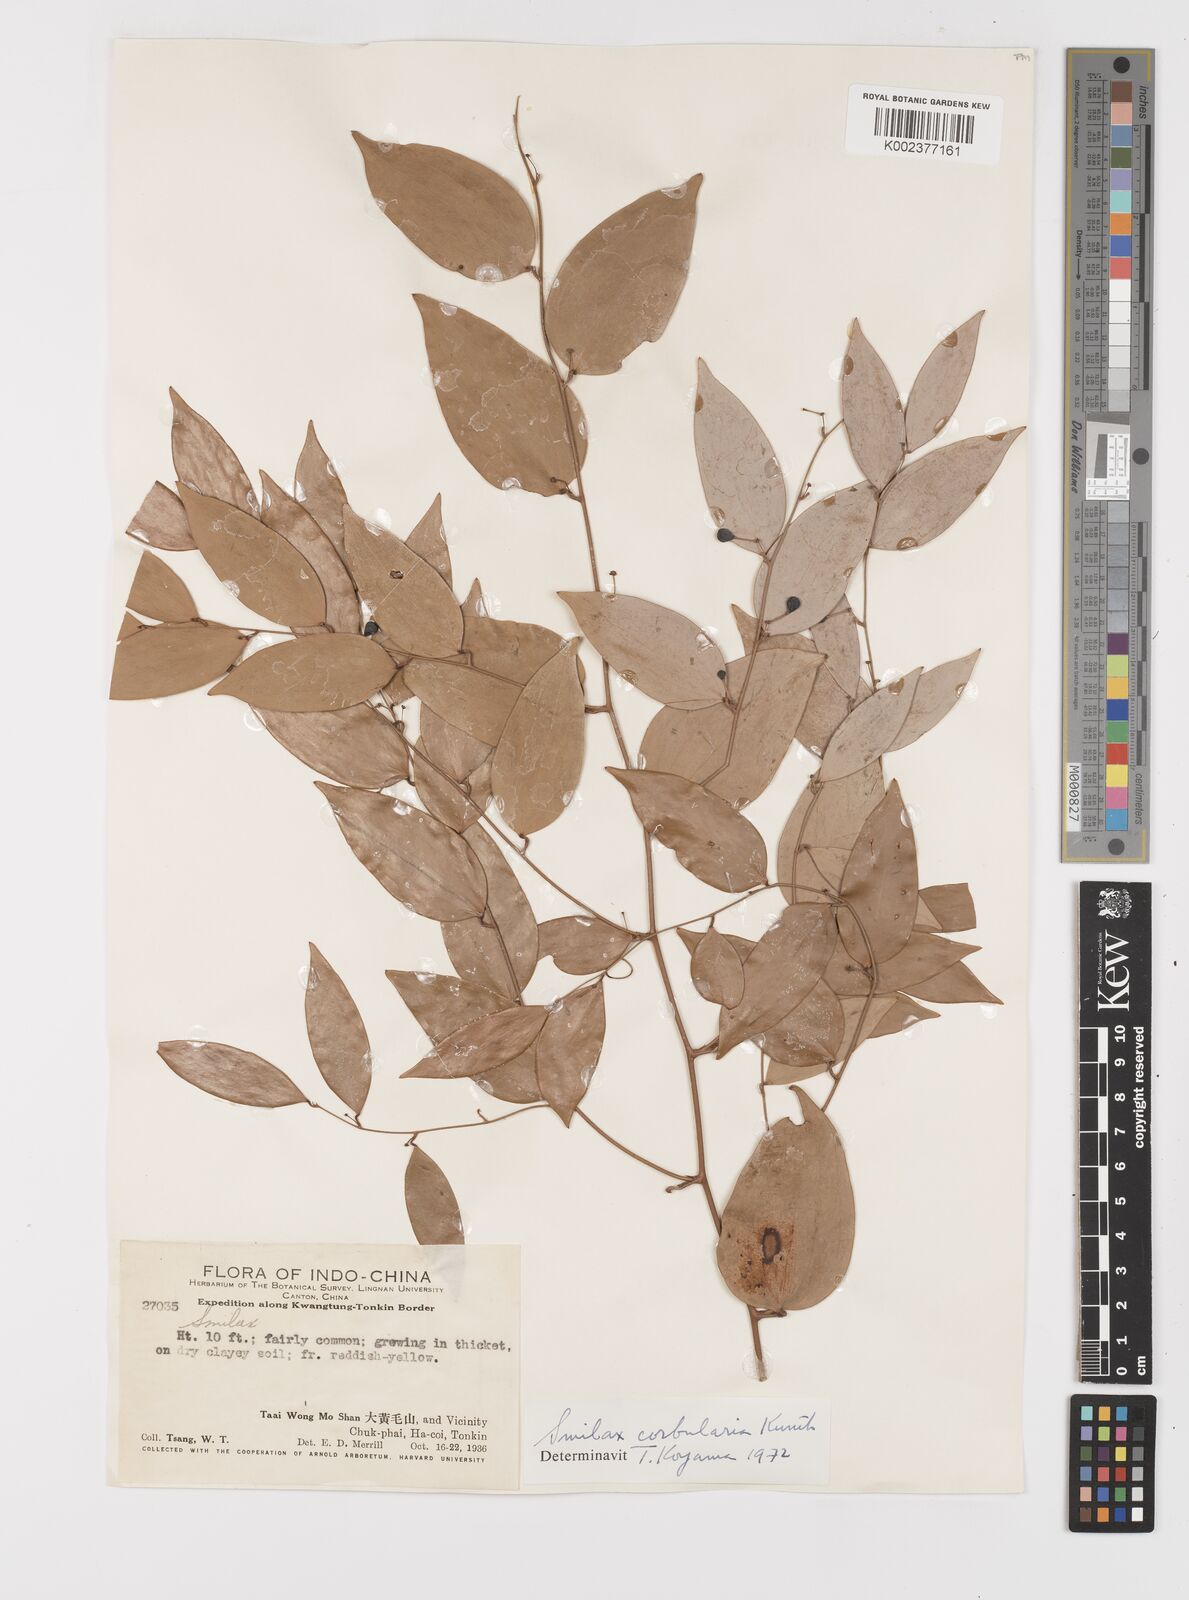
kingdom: Plantae
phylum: Tracheophyta
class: Liliopsida
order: Liliales
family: Smilacaceae
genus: Smilax
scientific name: Smilax corbularia
